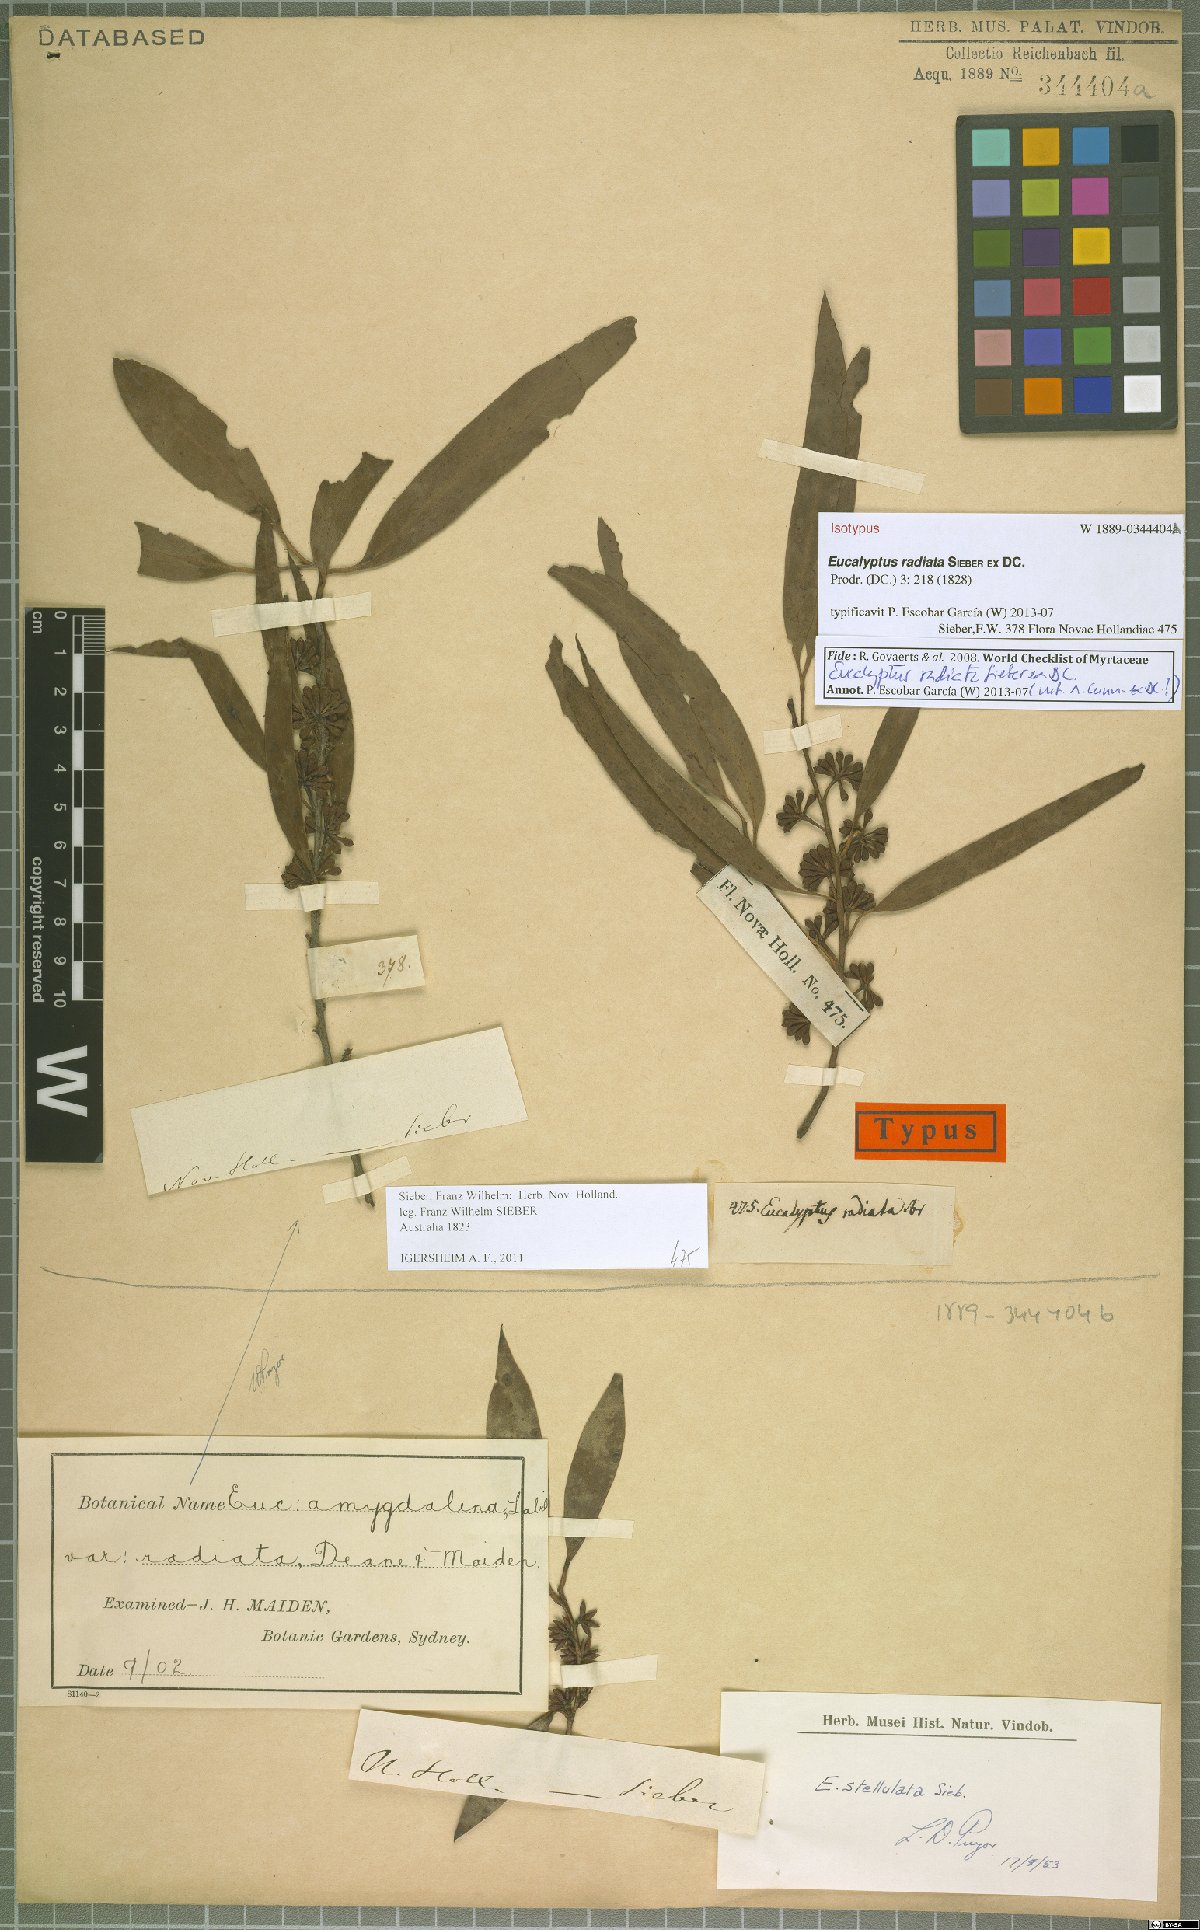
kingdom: Plantae
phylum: Tracheophyta
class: Magnoliopsida
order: Myrtales
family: Myrtaceae
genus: Eucalyptus
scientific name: Eucalyptus stellulata
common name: Black sallee
